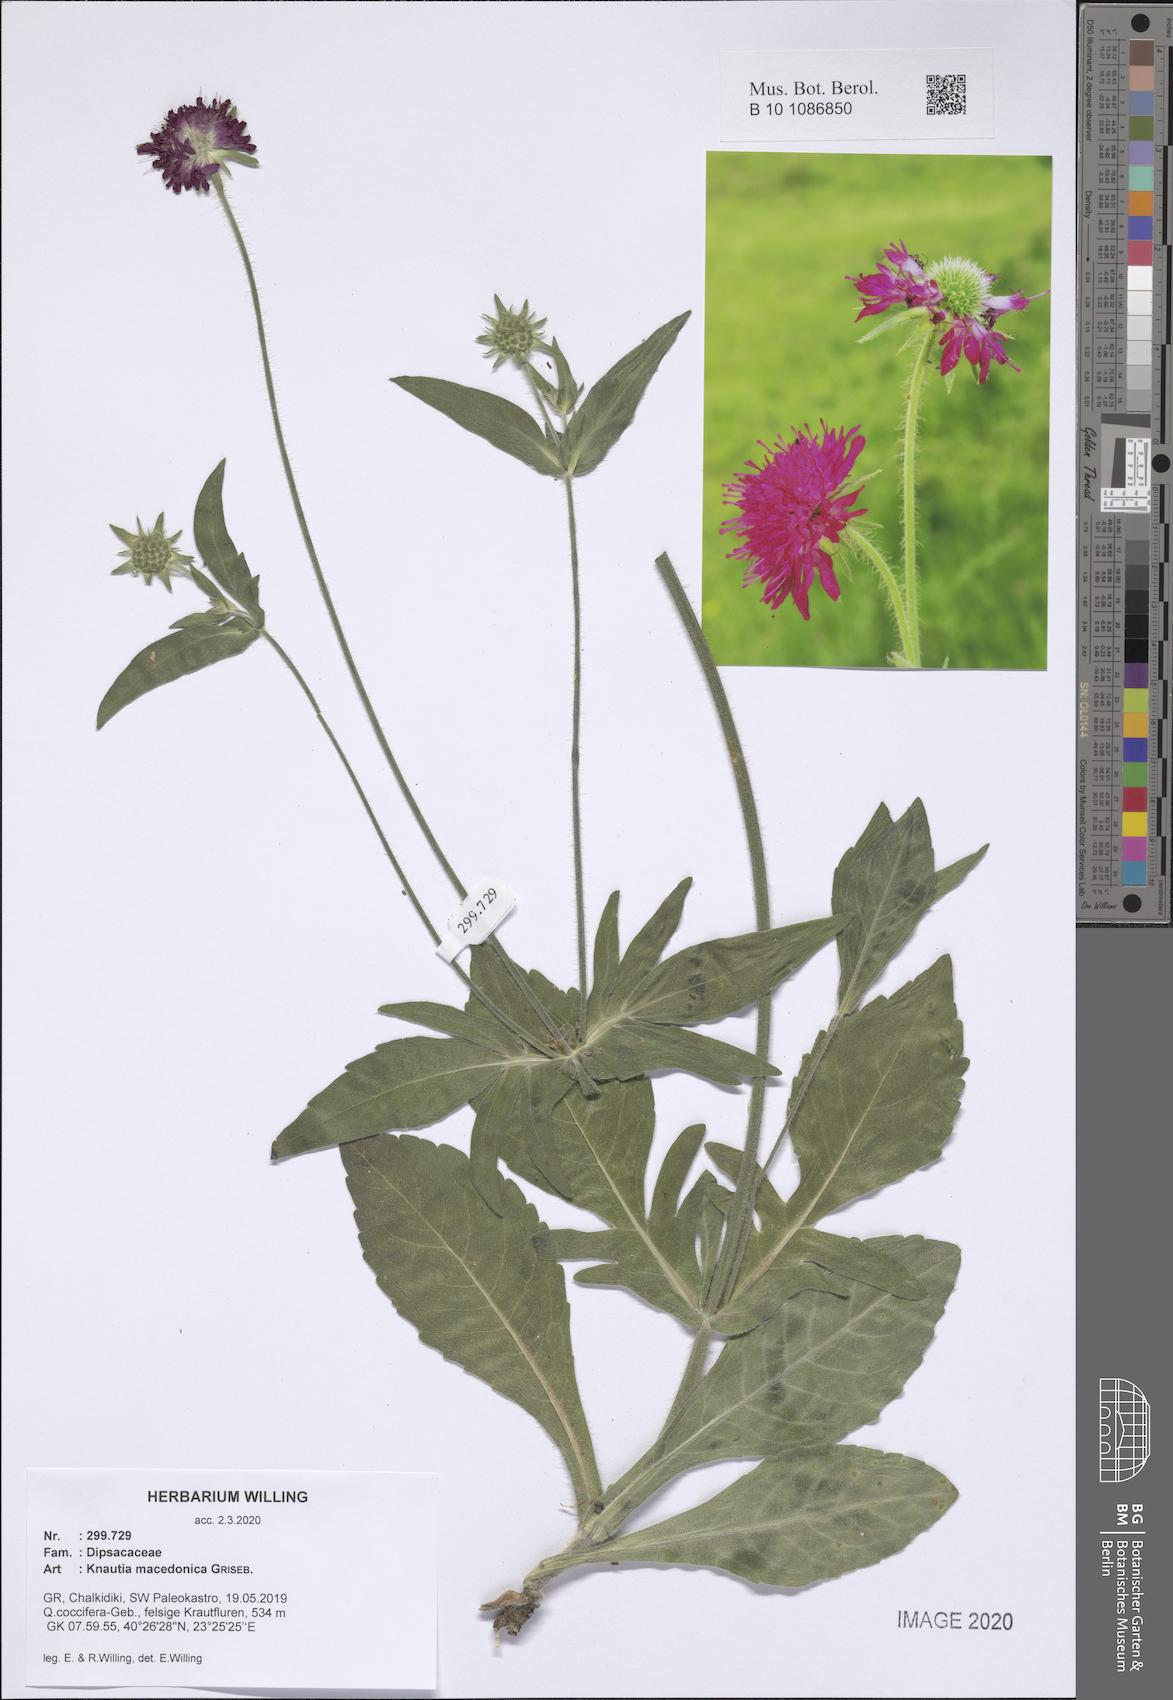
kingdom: Plantae
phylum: Tracheophyta
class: Magnoliopsida
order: Dipsacales
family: Caprifoliaceae
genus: Knautia
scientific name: Knautia macedonica
